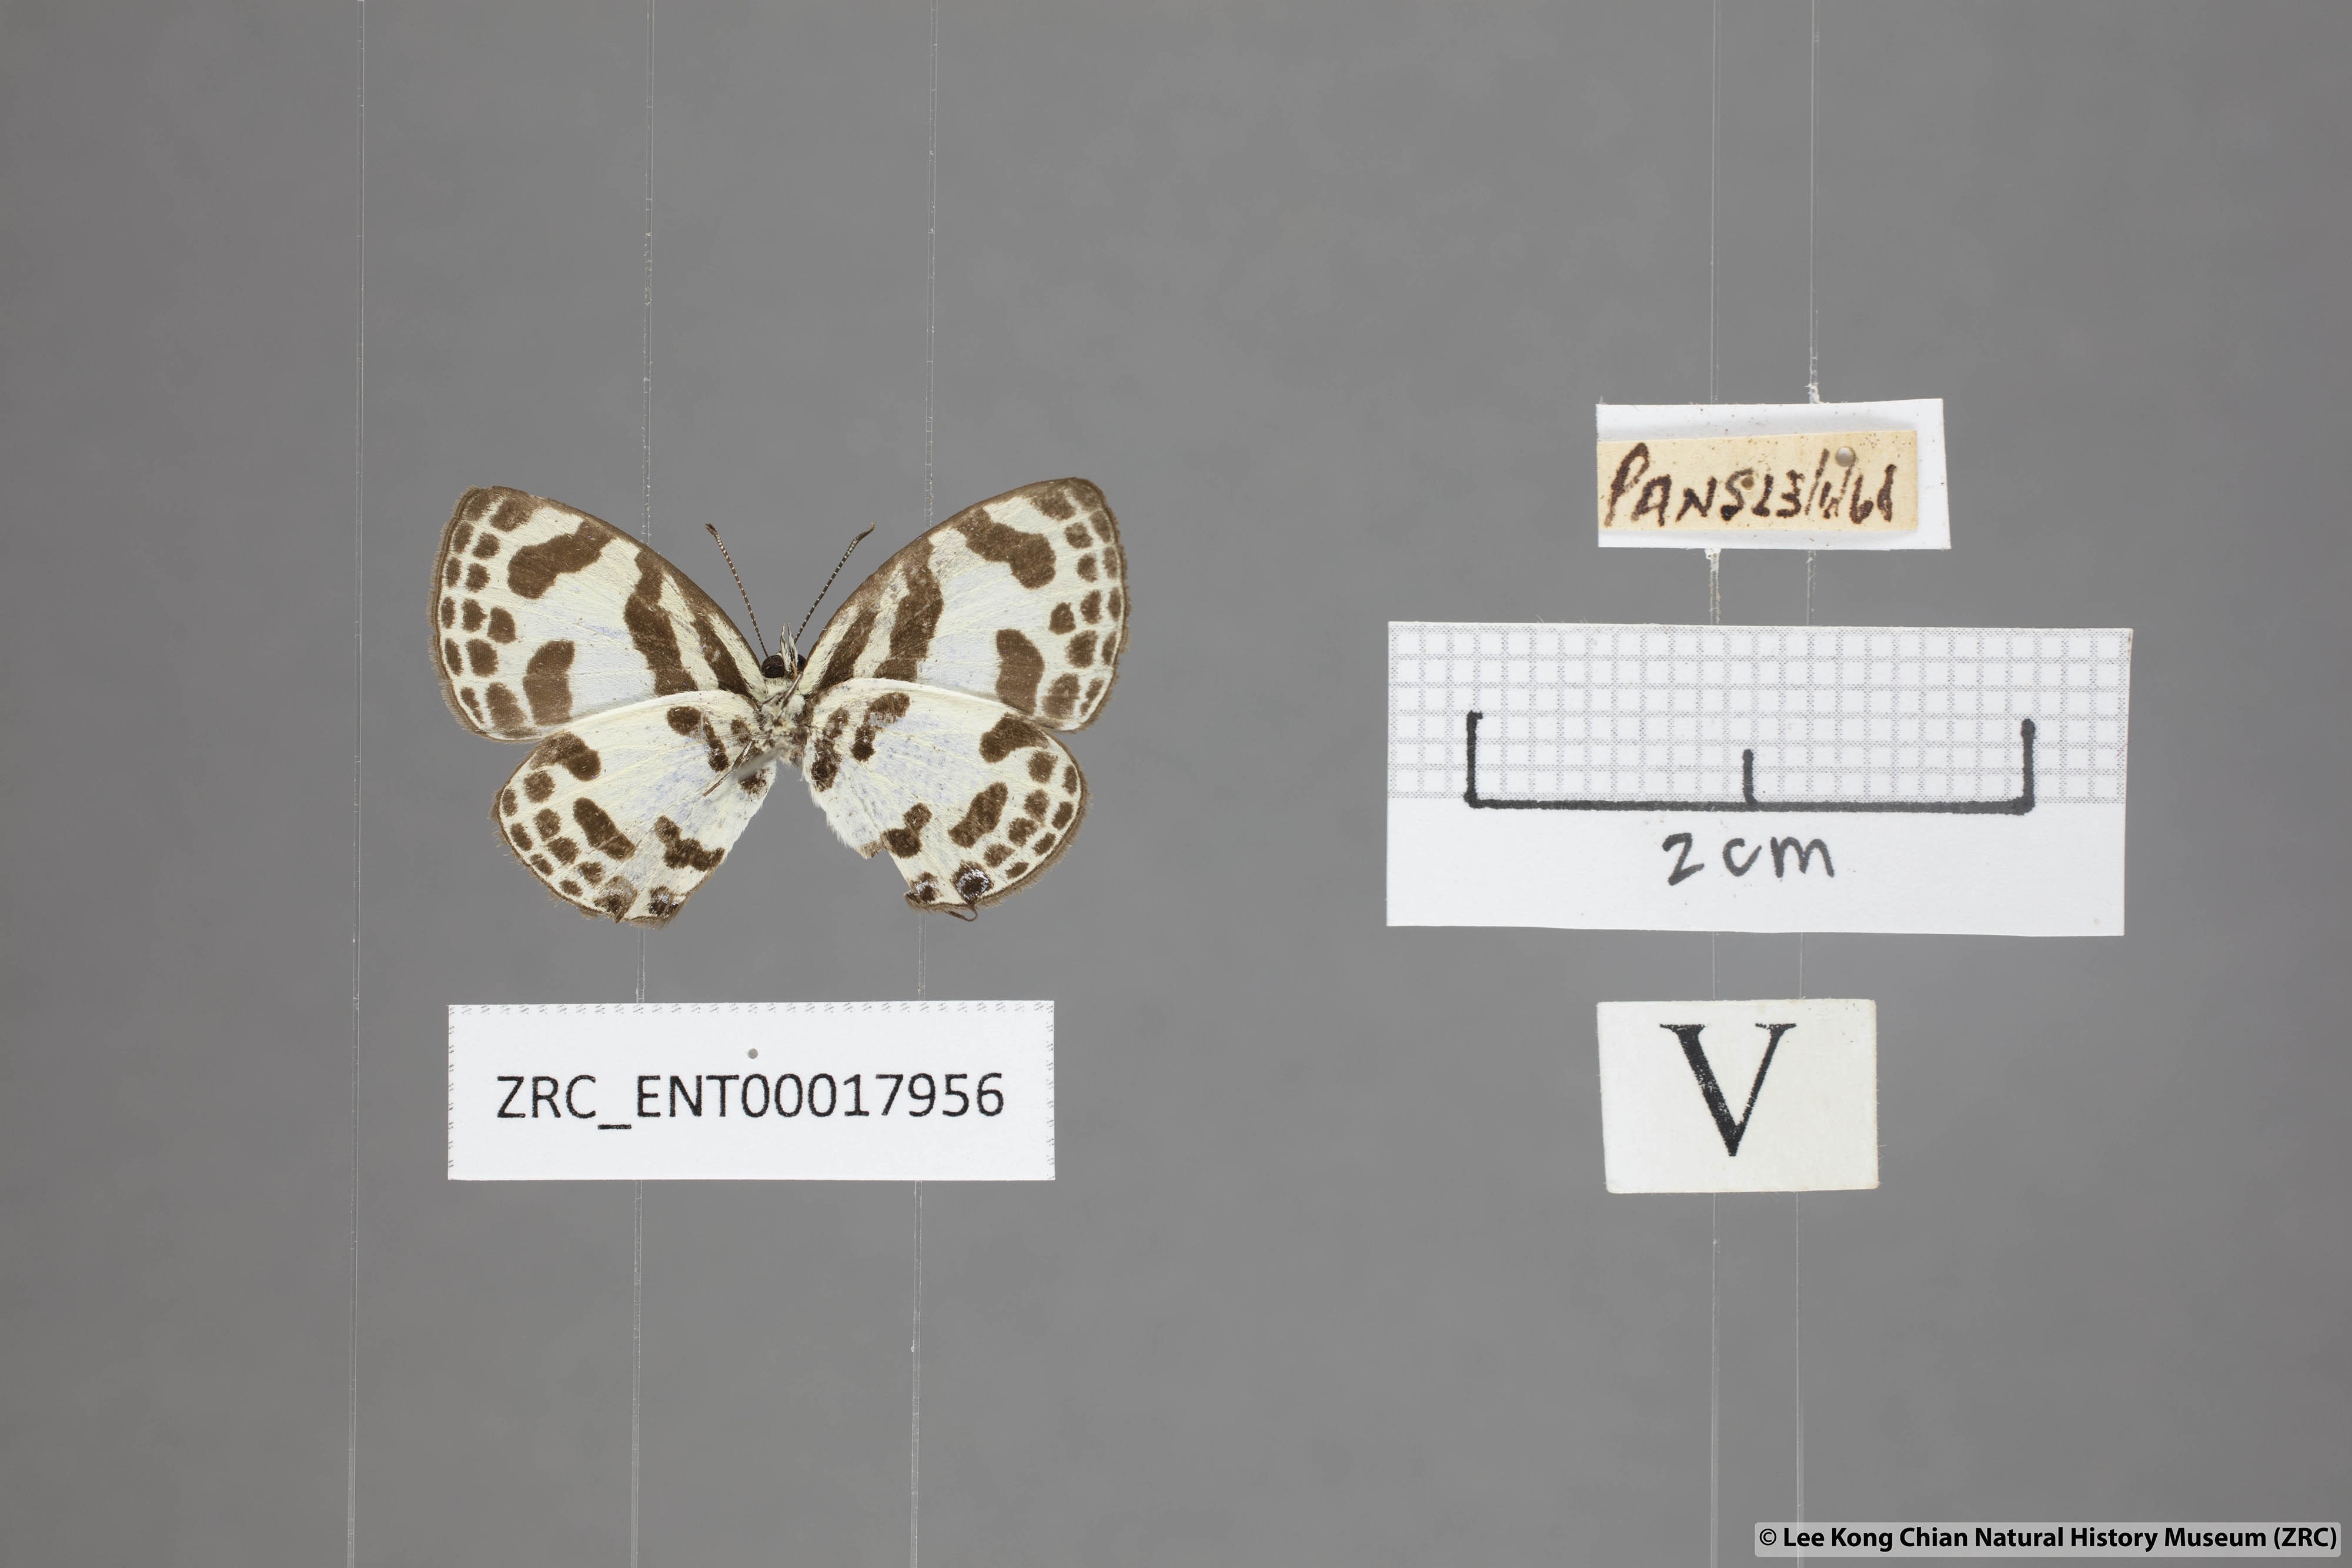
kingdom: Animalia
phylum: Arthropoda
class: Insecta
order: Lepidoptera
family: Lycaenidae
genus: Discolampa
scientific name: Discolampa ethion
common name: Banded blue pierrot
